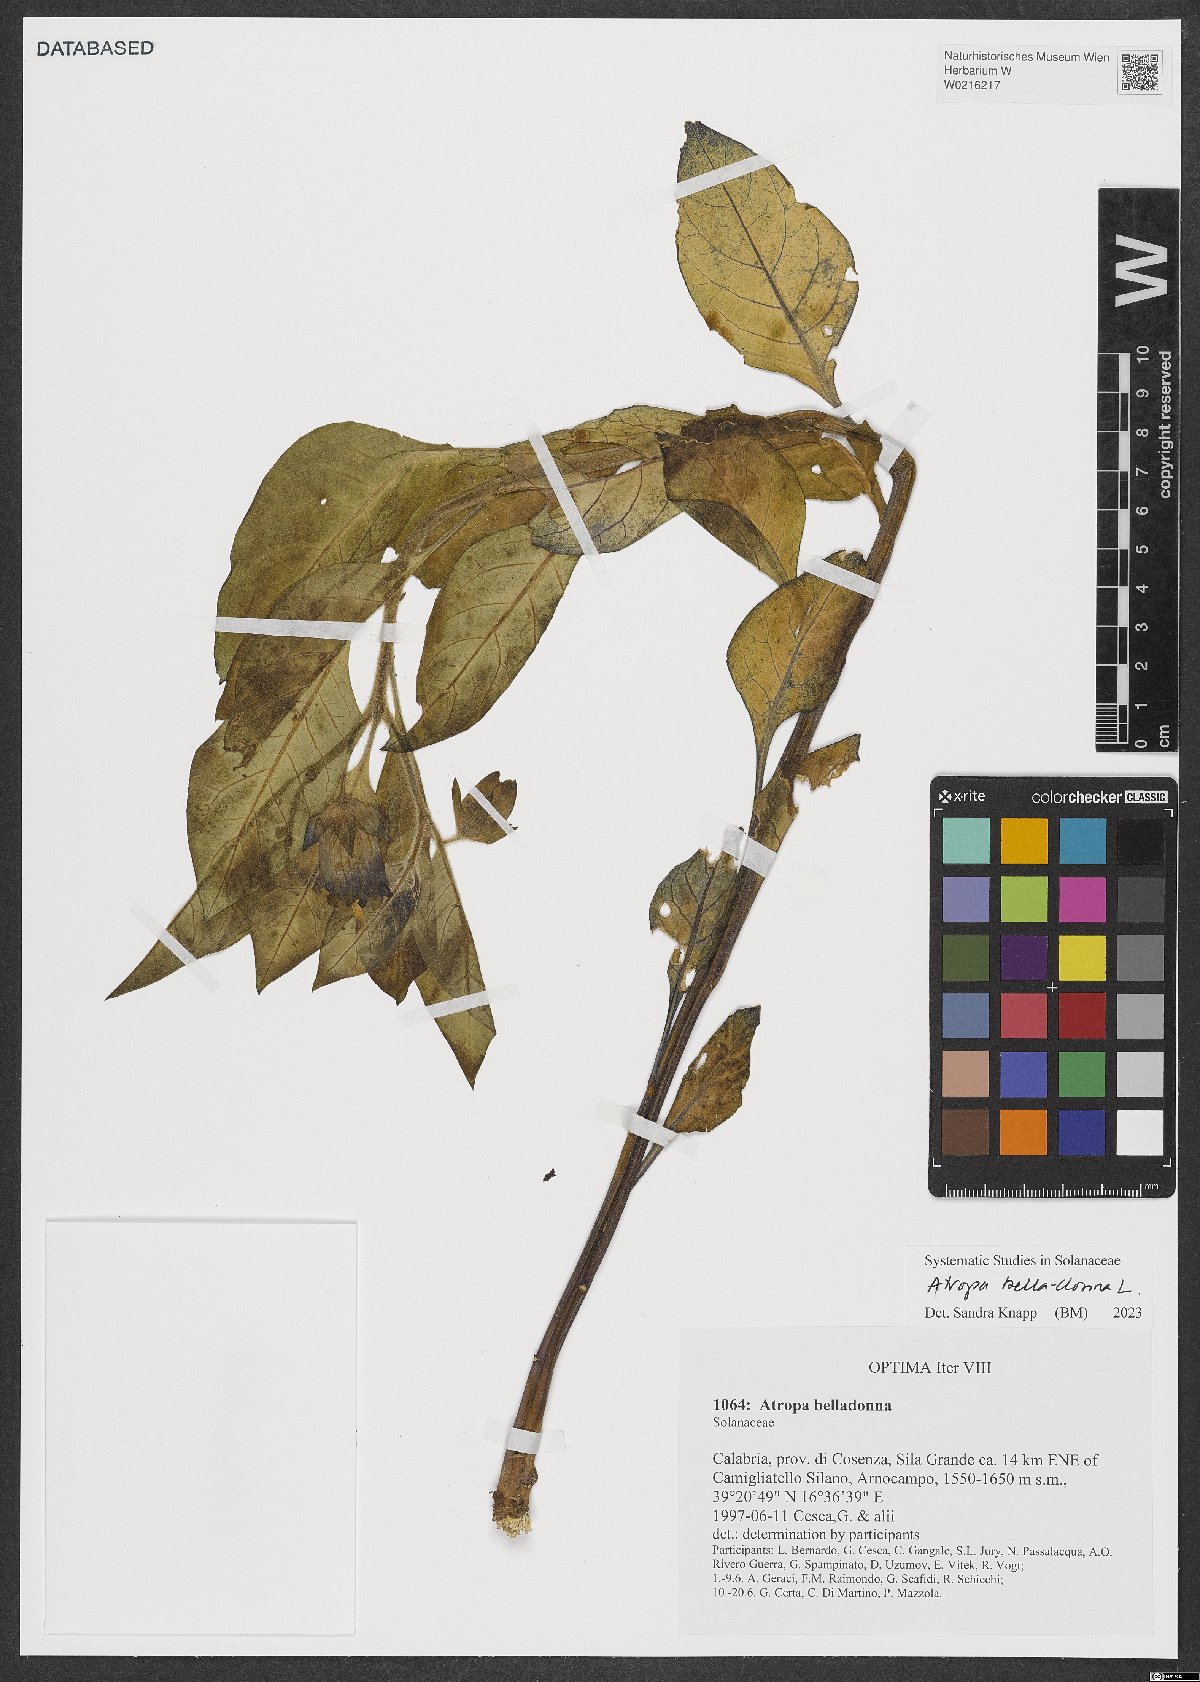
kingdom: Plantae
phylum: Tracheophyta
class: Magnoliopsida
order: Solanales
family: Solanaceae
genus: Atropa
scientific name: Atropa belladonna
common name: Deadly nightshade
